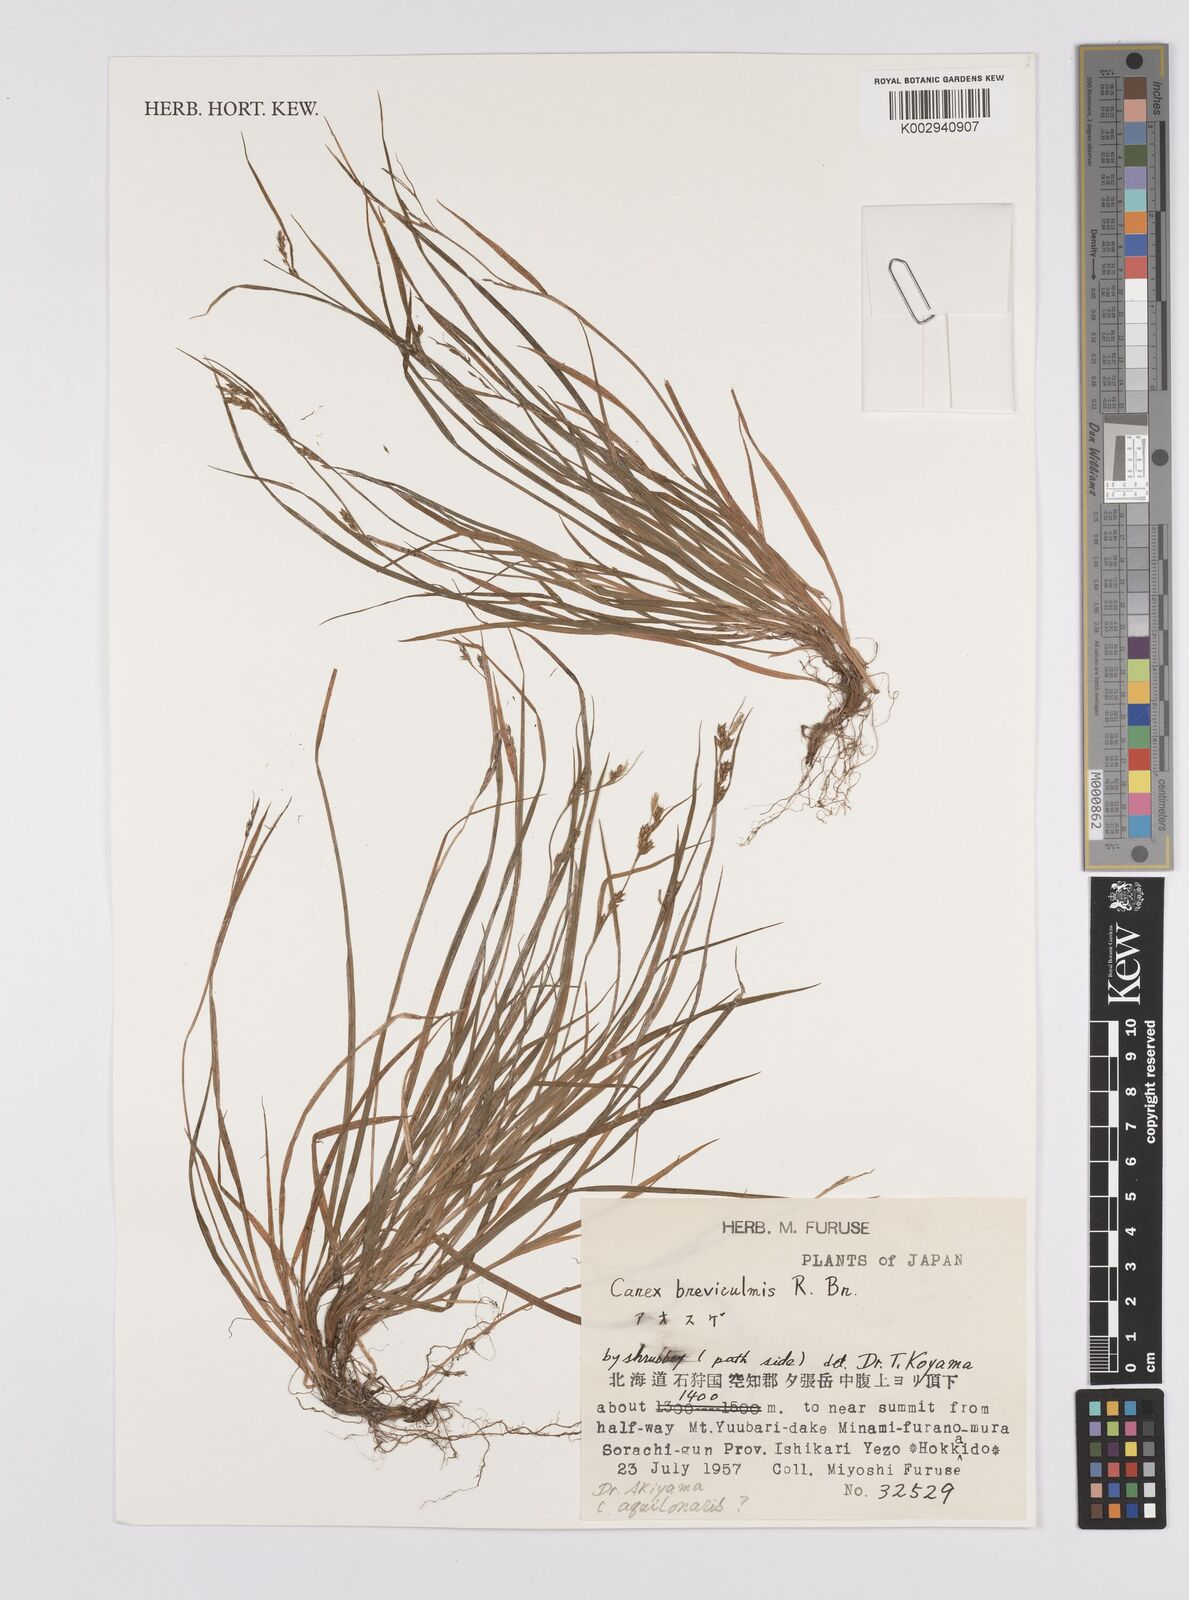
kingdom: Plantae
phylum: Tracheophyta
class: Liliopsida
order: Poales
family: Cyperaceae
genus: Carex
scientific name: Carex breviculmis
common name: Asian shortstem sedge
